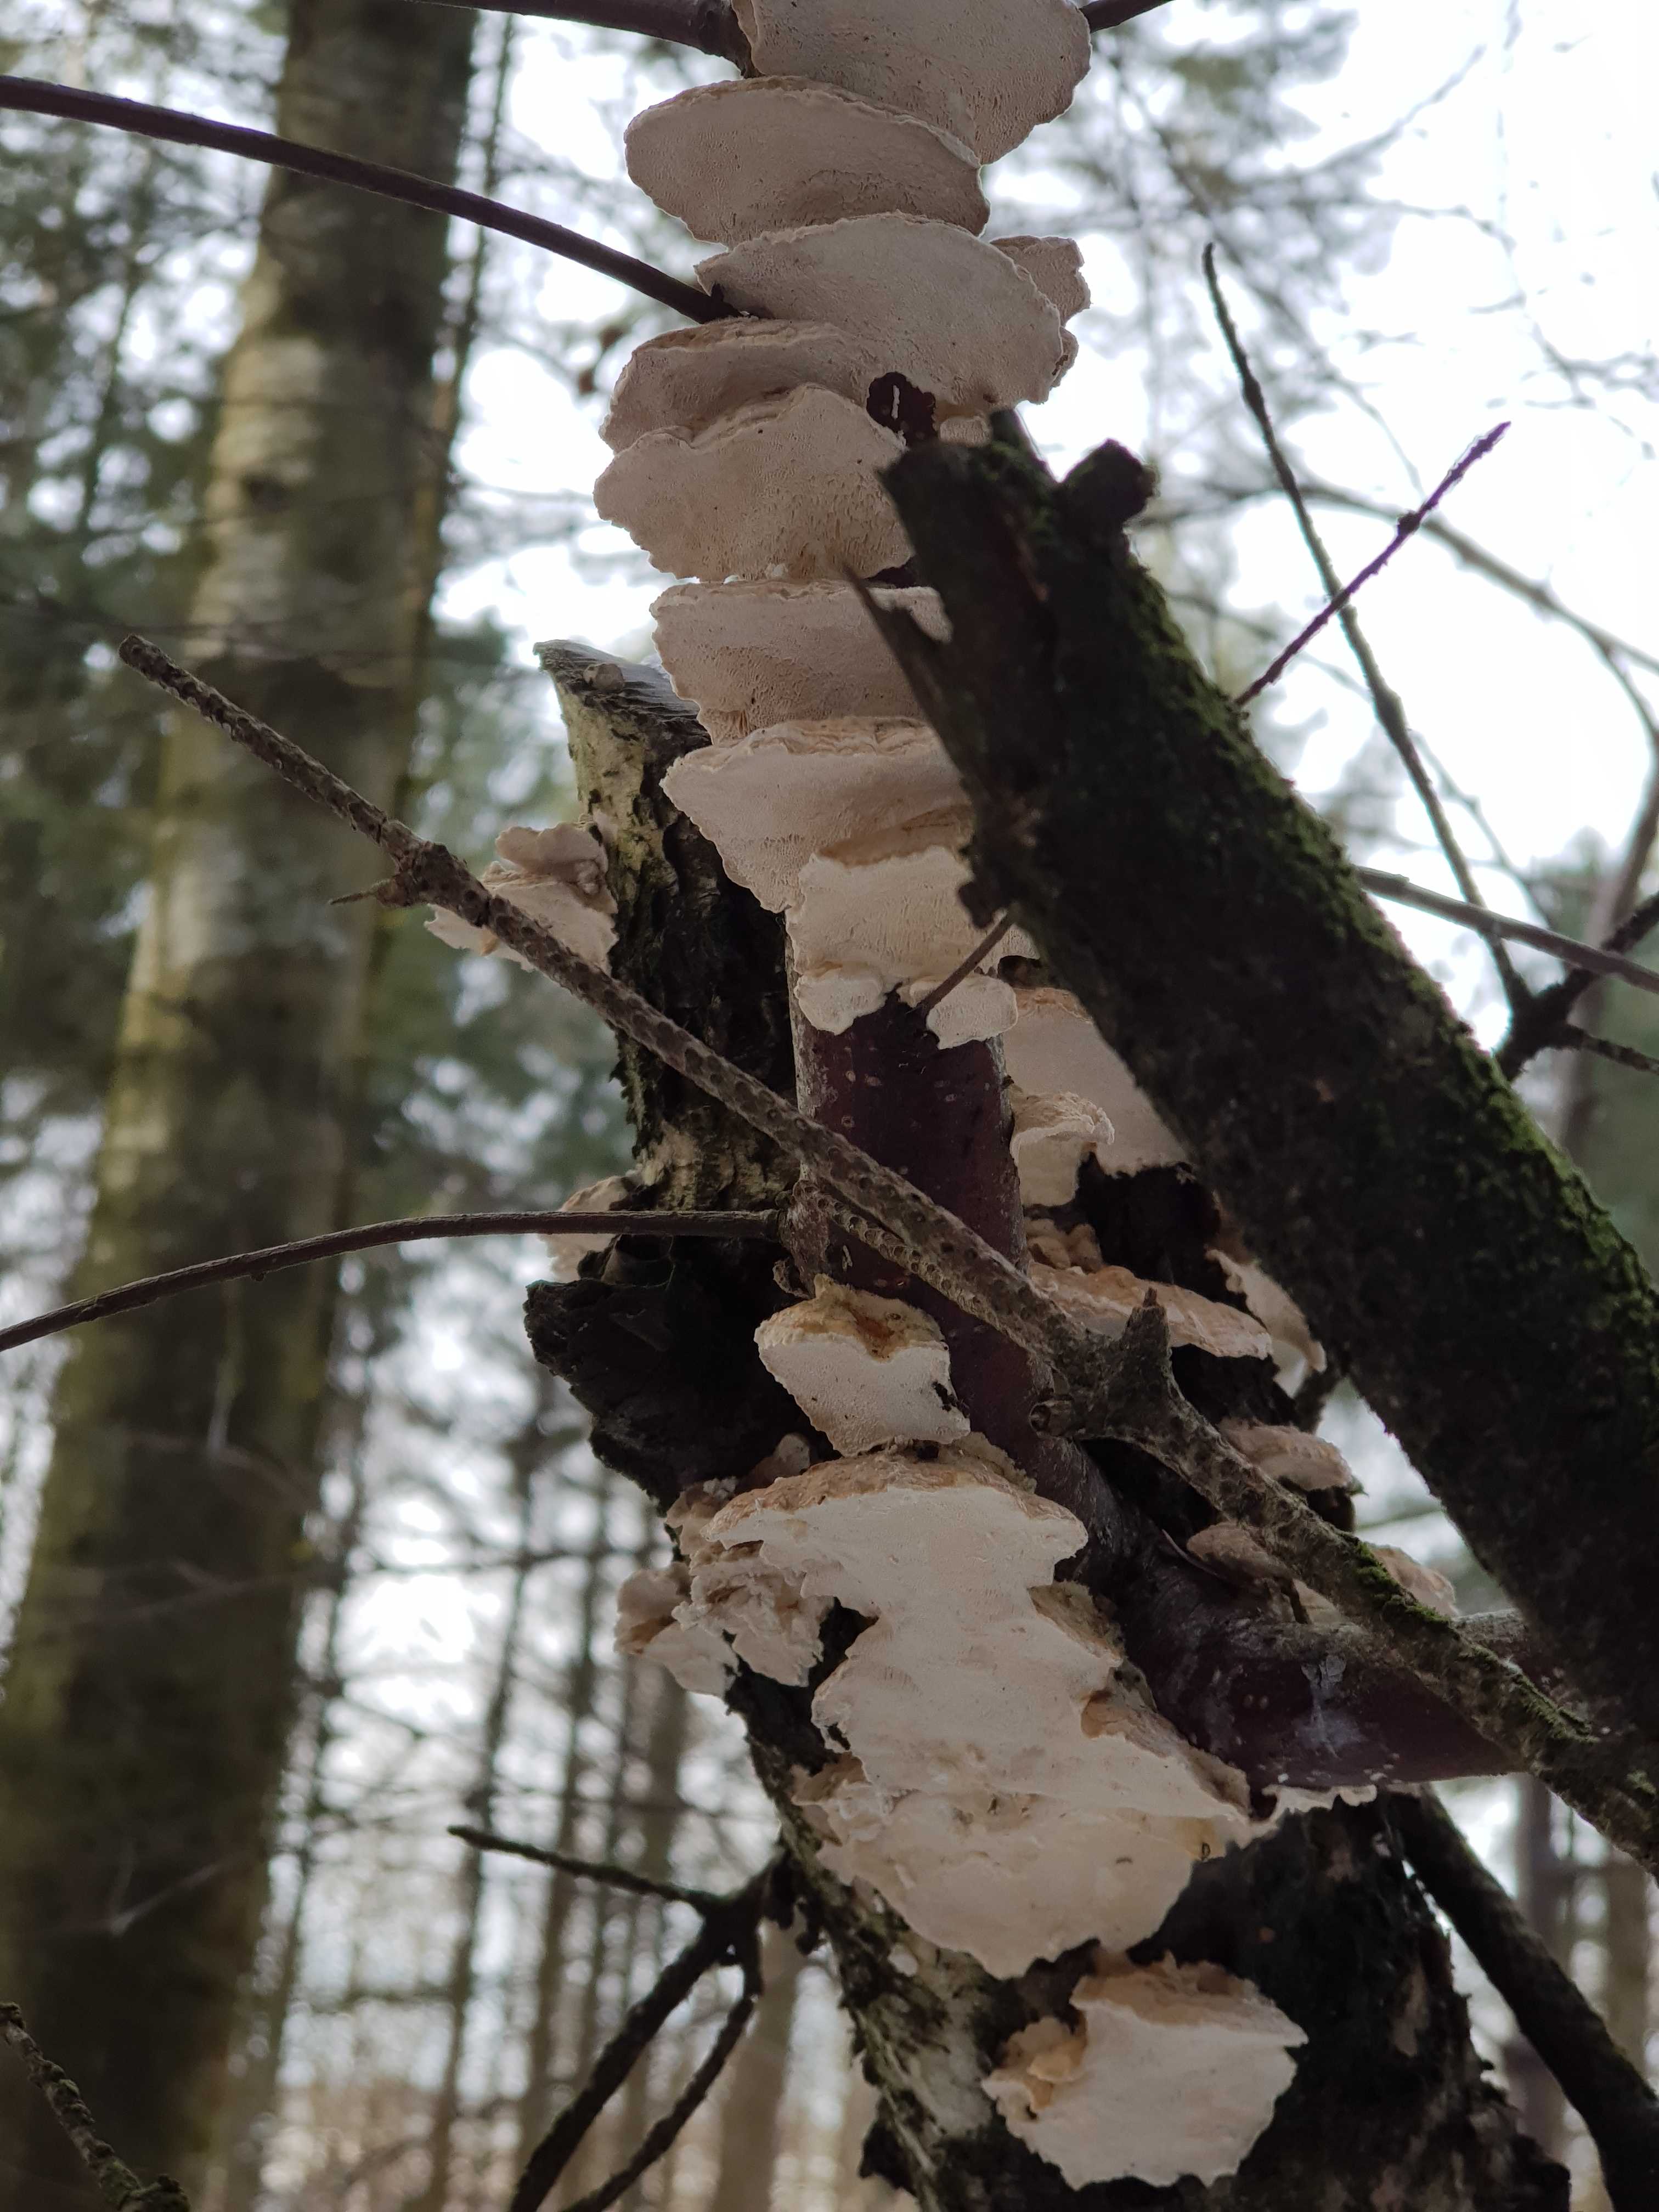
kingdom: Fungi
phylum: Basidiomycota
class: Agaricomycetes
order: Polyporales
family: Polyporaceae
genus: Trametes
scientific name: Trametes ochracea
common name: bæltet læderporesvamp
